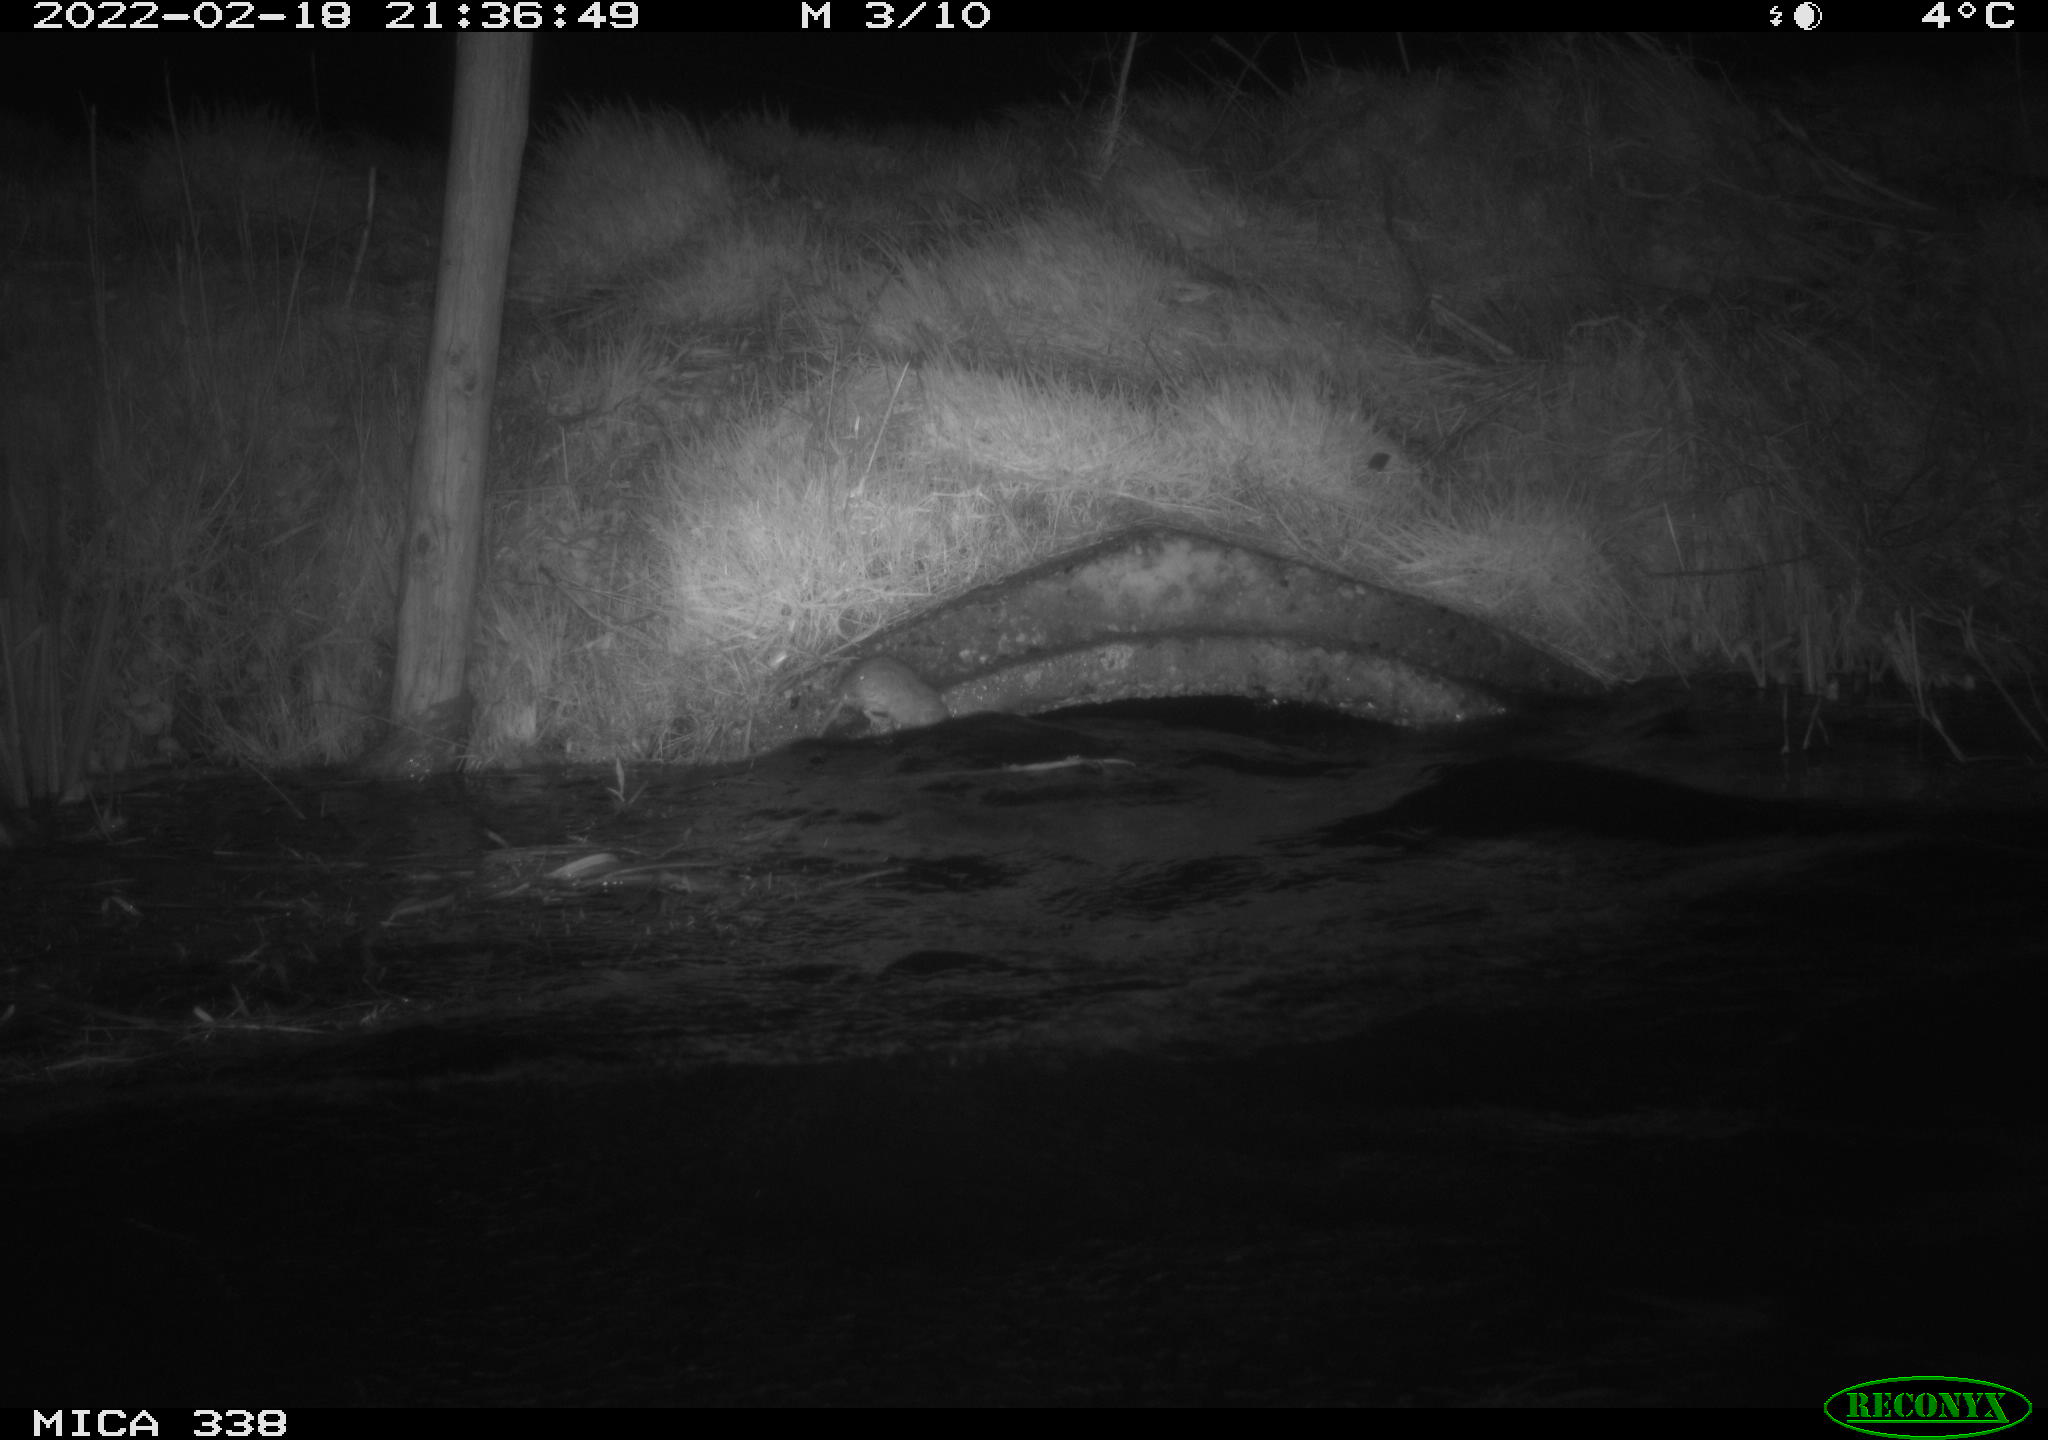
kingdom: Animalia
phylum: Chordata
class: Mammalia
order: Rodentia
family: Muridae
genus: Rattus
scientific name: Rattus norvegicus
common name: Brown rat
